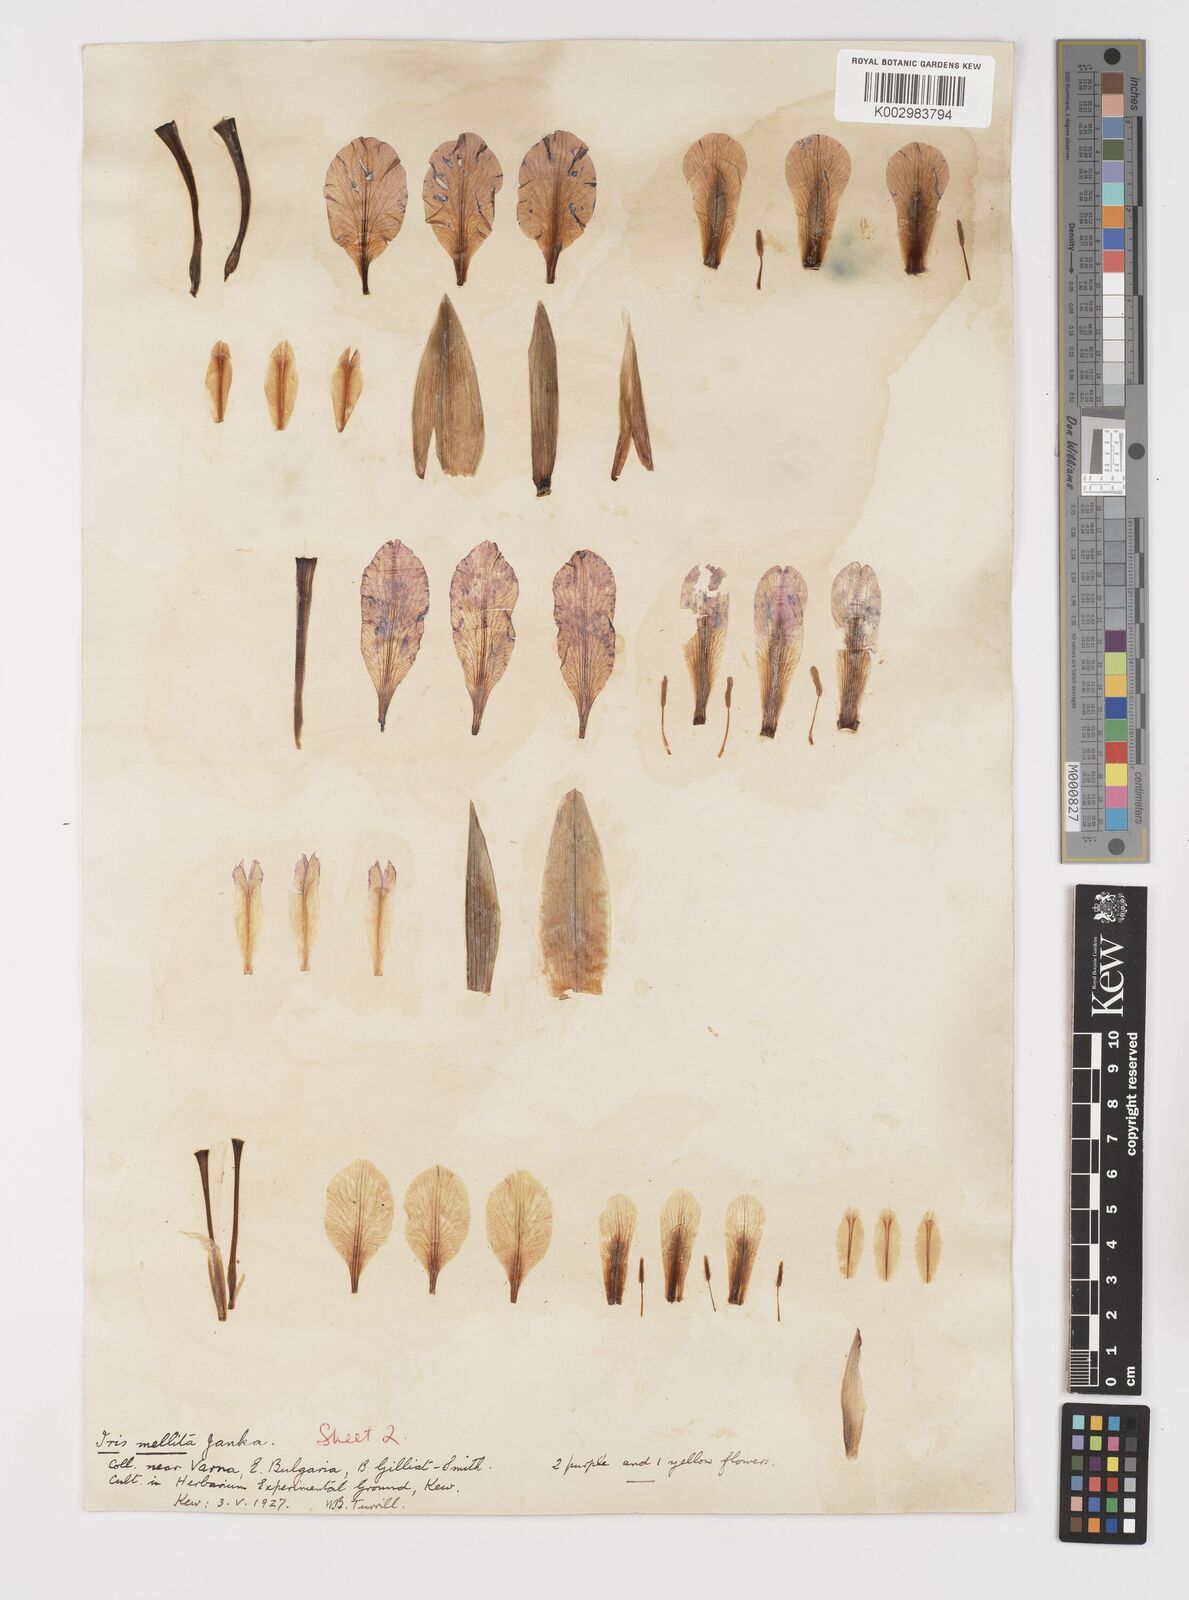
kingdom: Plantae
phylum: Tracheophyta
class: Liliopsida
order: Asparagales
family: Iridaceae
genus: Iris
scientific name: Iris suaveolens
